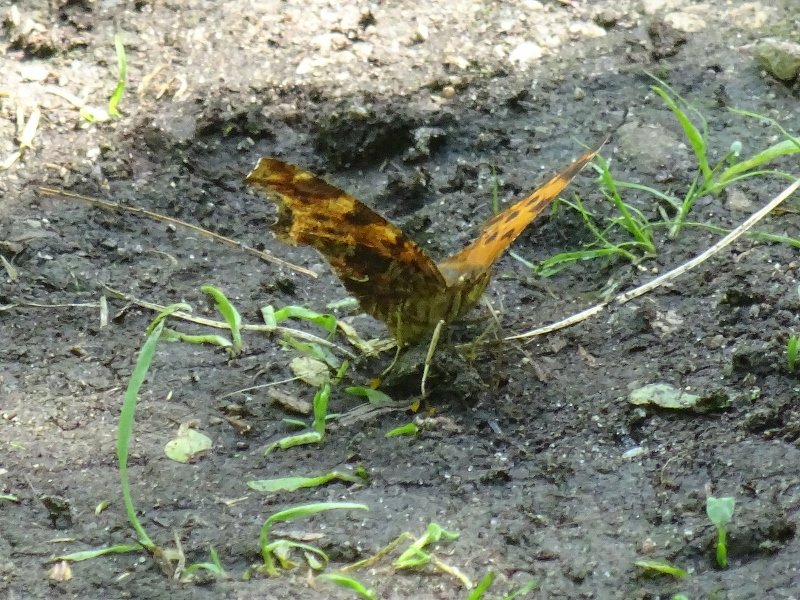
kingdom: Animalia
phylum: Arthropoda
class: Insecta
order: Lepidoptera
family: Nymphalidae
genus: Polygonia
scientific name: Polygonia comma
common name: Eastern Comma
